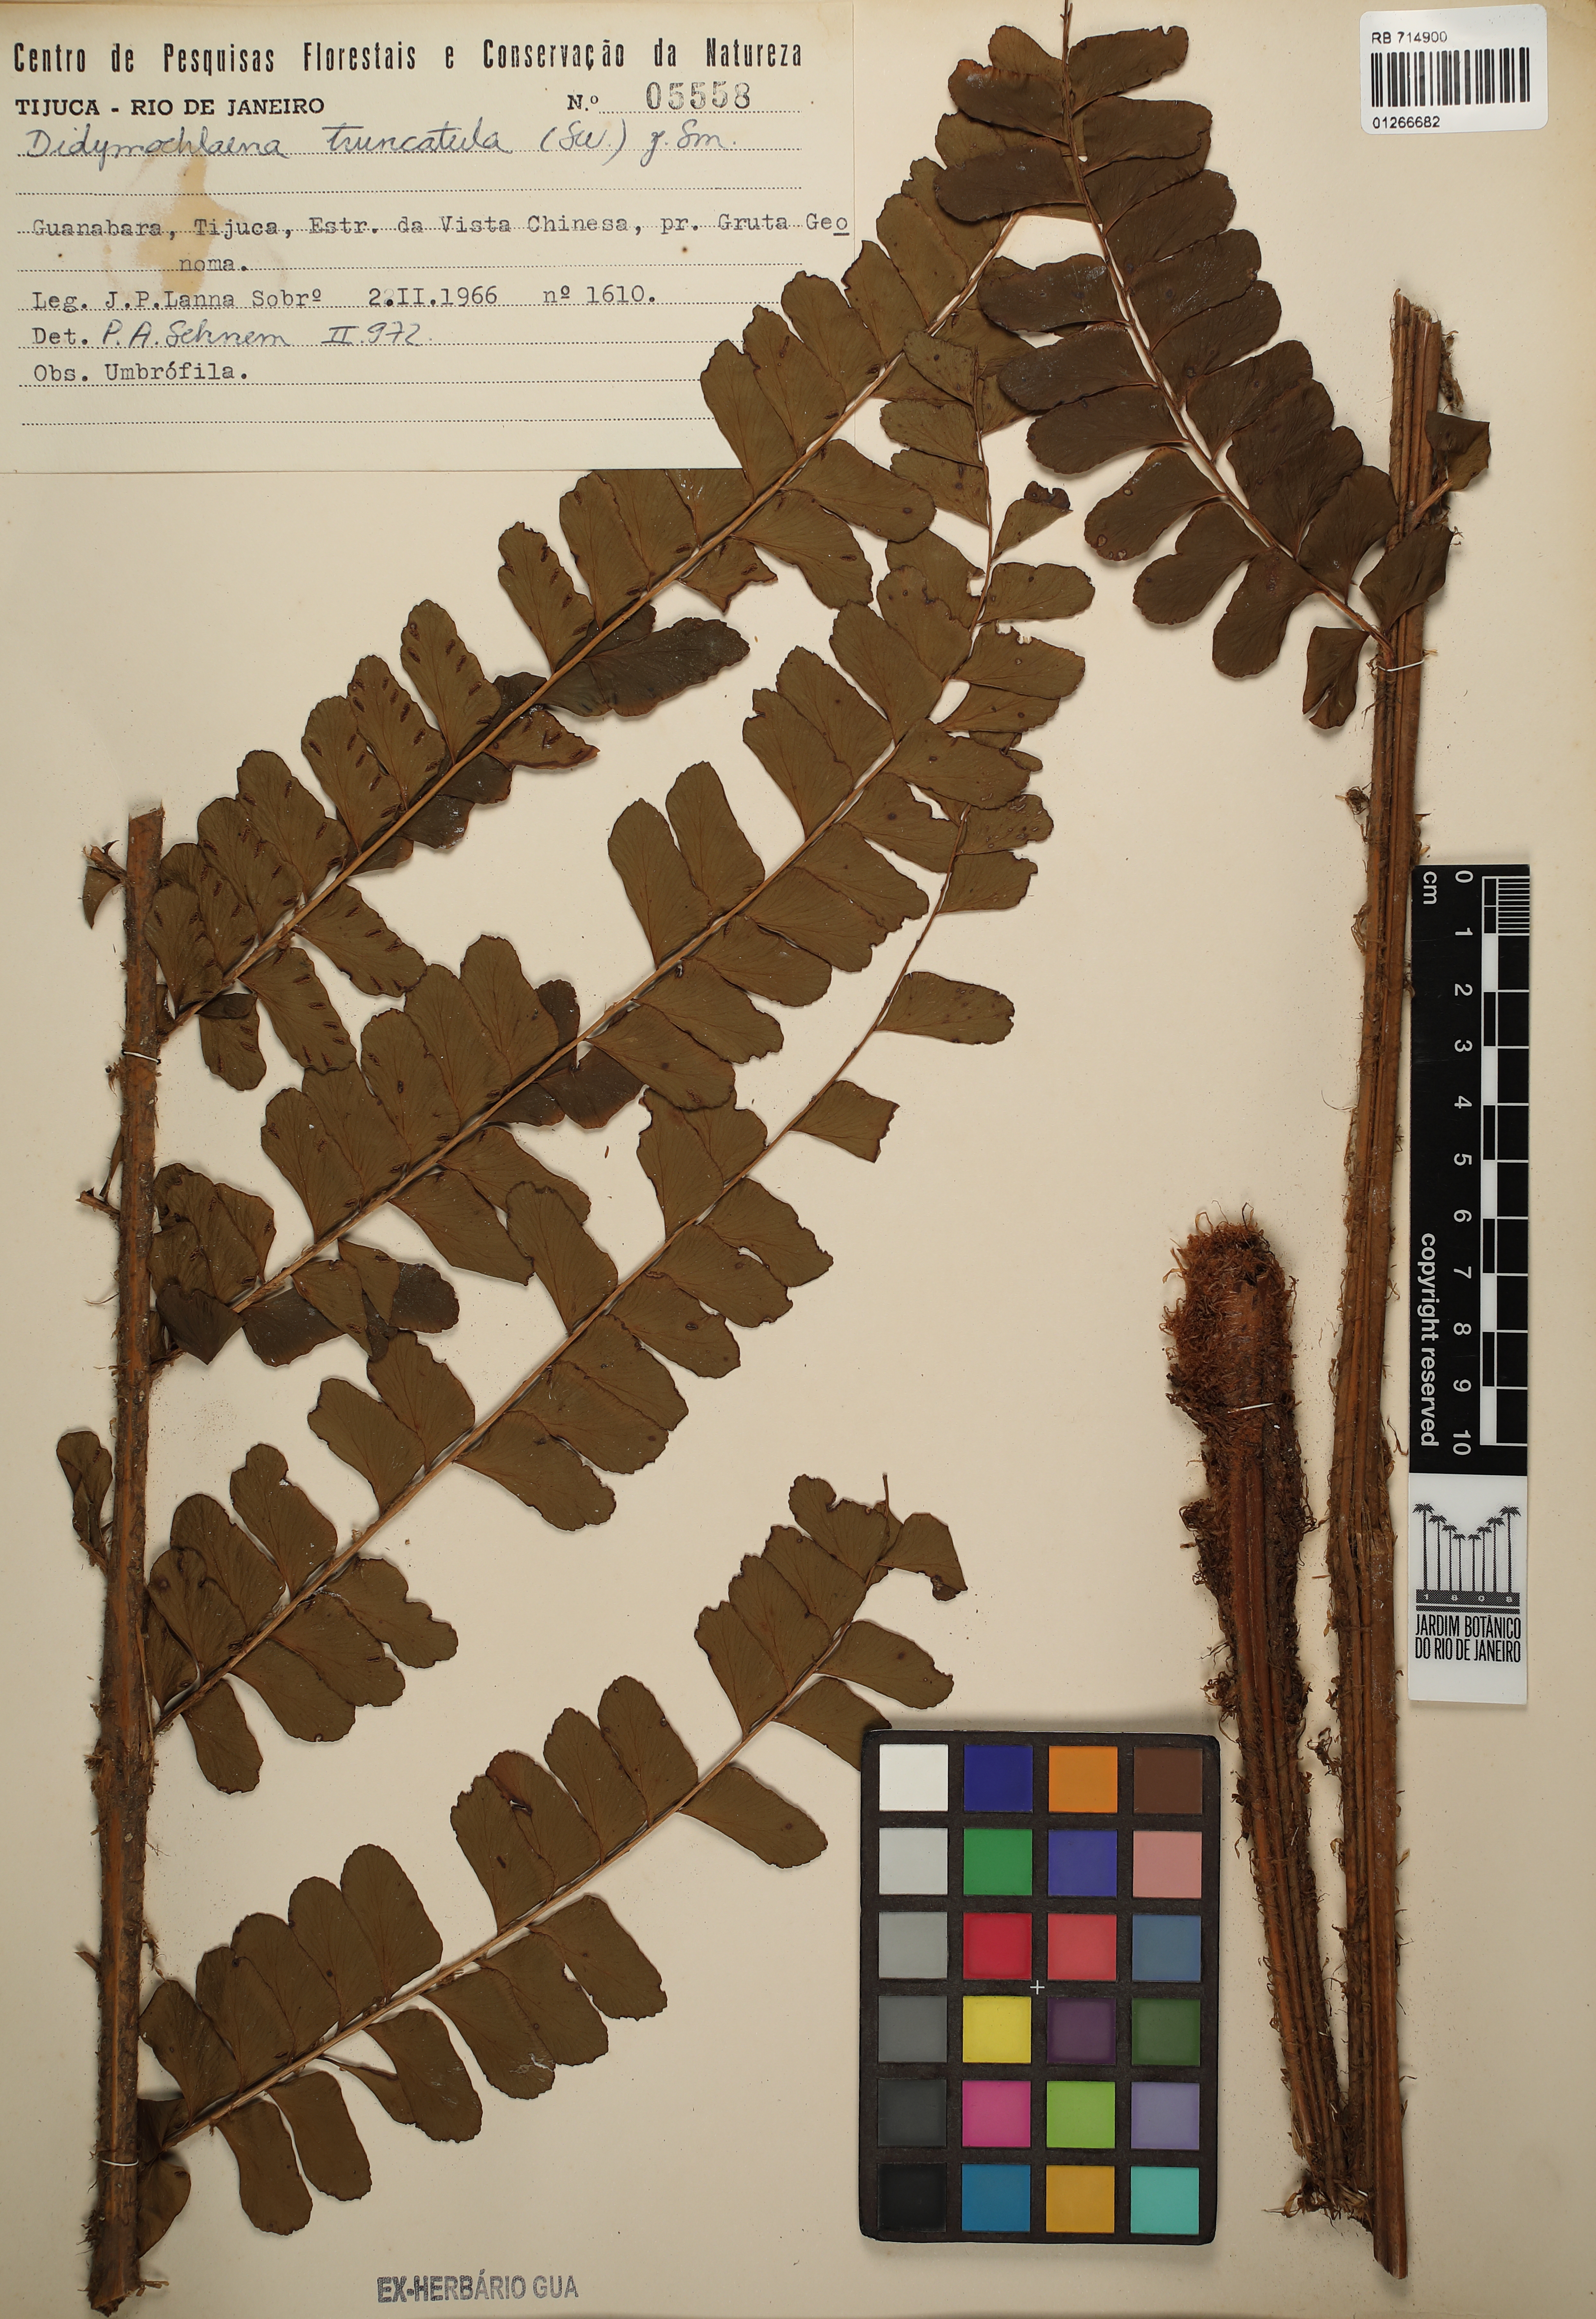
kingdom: Plantae
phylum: Tracheophyta
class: Polypodiopsida
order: Polypodiales
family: Didymochlaenaceae
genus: Didymochlaena
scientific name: Didymochlaena truncatula
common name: Mahogany fern
